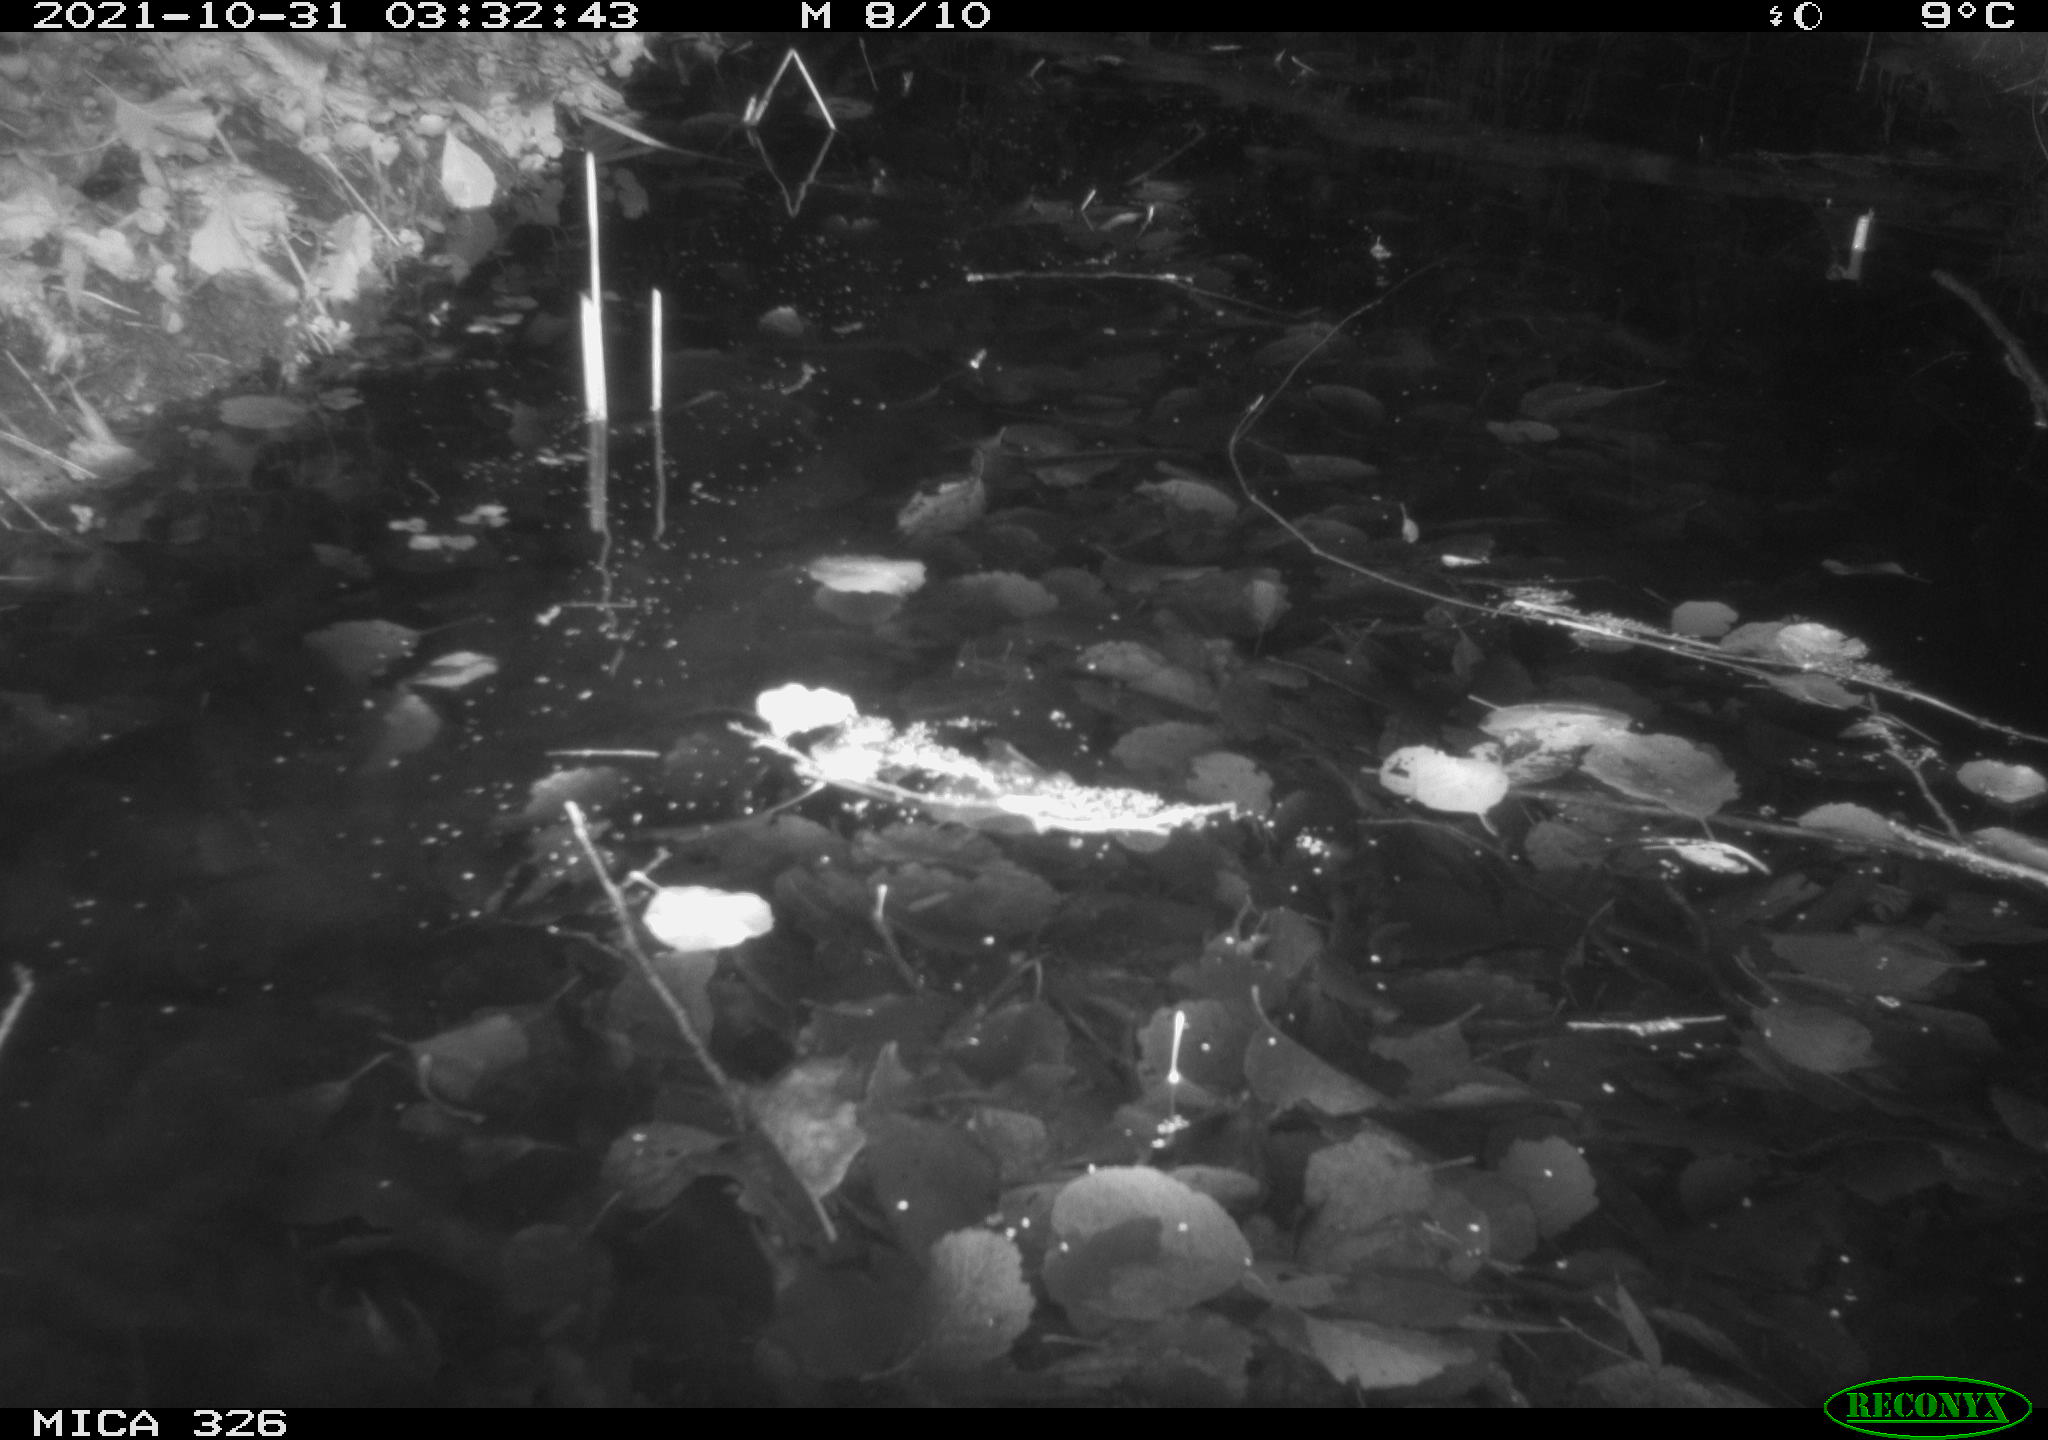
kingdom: Animalia
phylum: Chordata
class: Mammalia
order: Rodentia
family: Myocastoridae
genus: Myocastor
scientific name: Myocastor coypus
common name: Coypu
